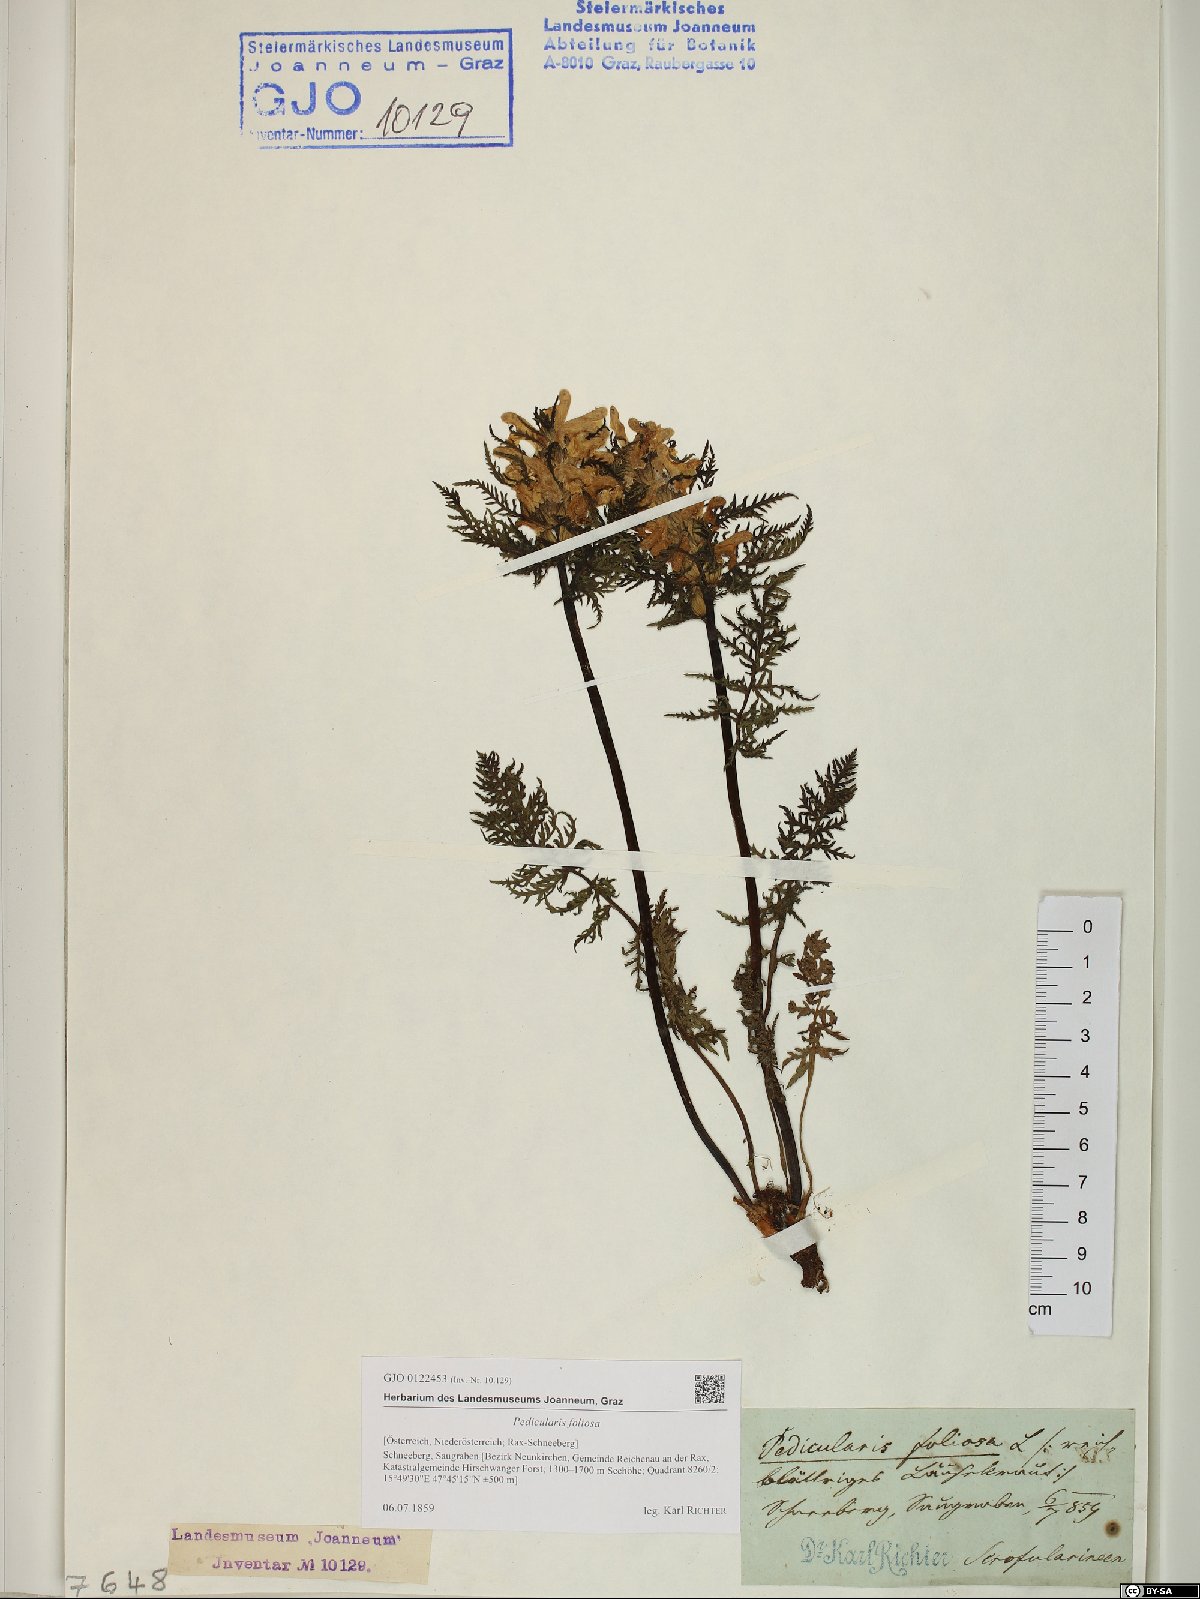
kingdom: Plantae
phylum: Tracheophyta
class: Magnoliopsida
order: Lamiales
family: Orobanchaceae
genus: Pedicularis
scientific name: Pedicularis foliosa
